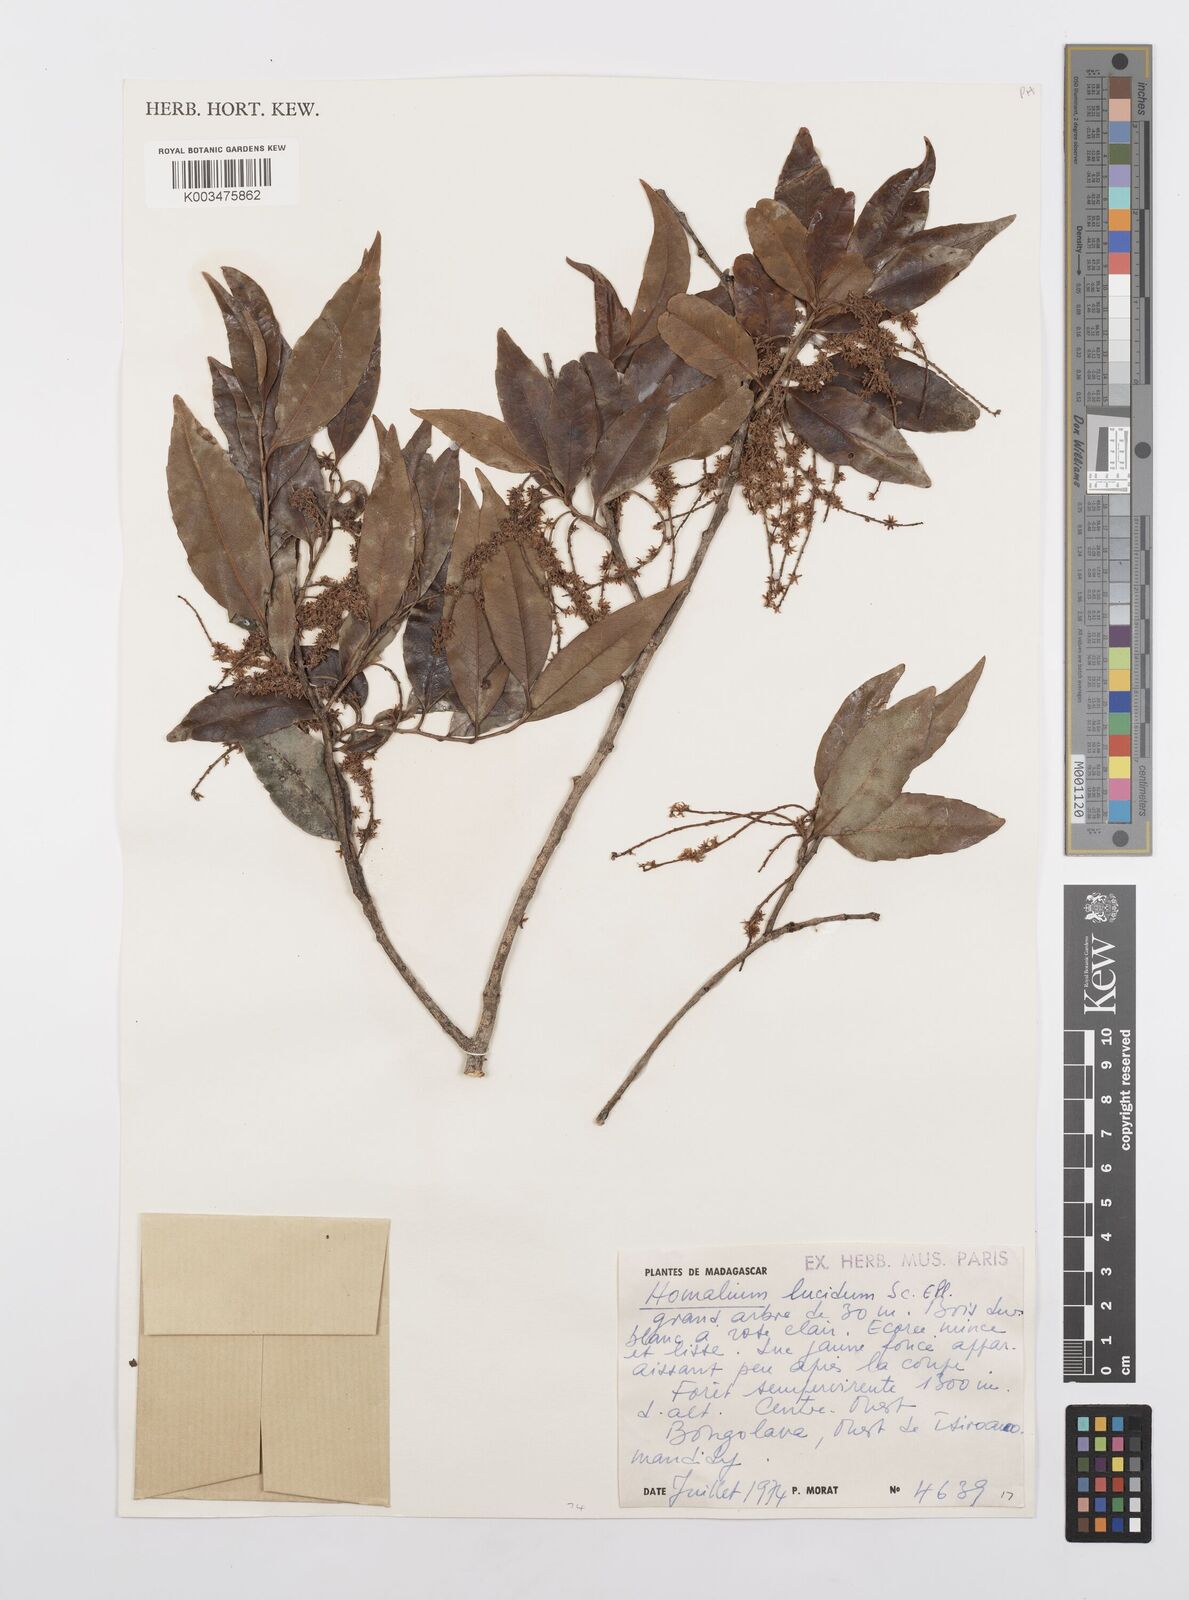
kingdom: Plantae
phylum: Tracheophyta
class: Magnoliopsida
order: Malpighiales
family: Salicaceae
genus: Homalium
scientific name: Homalium lucidum
